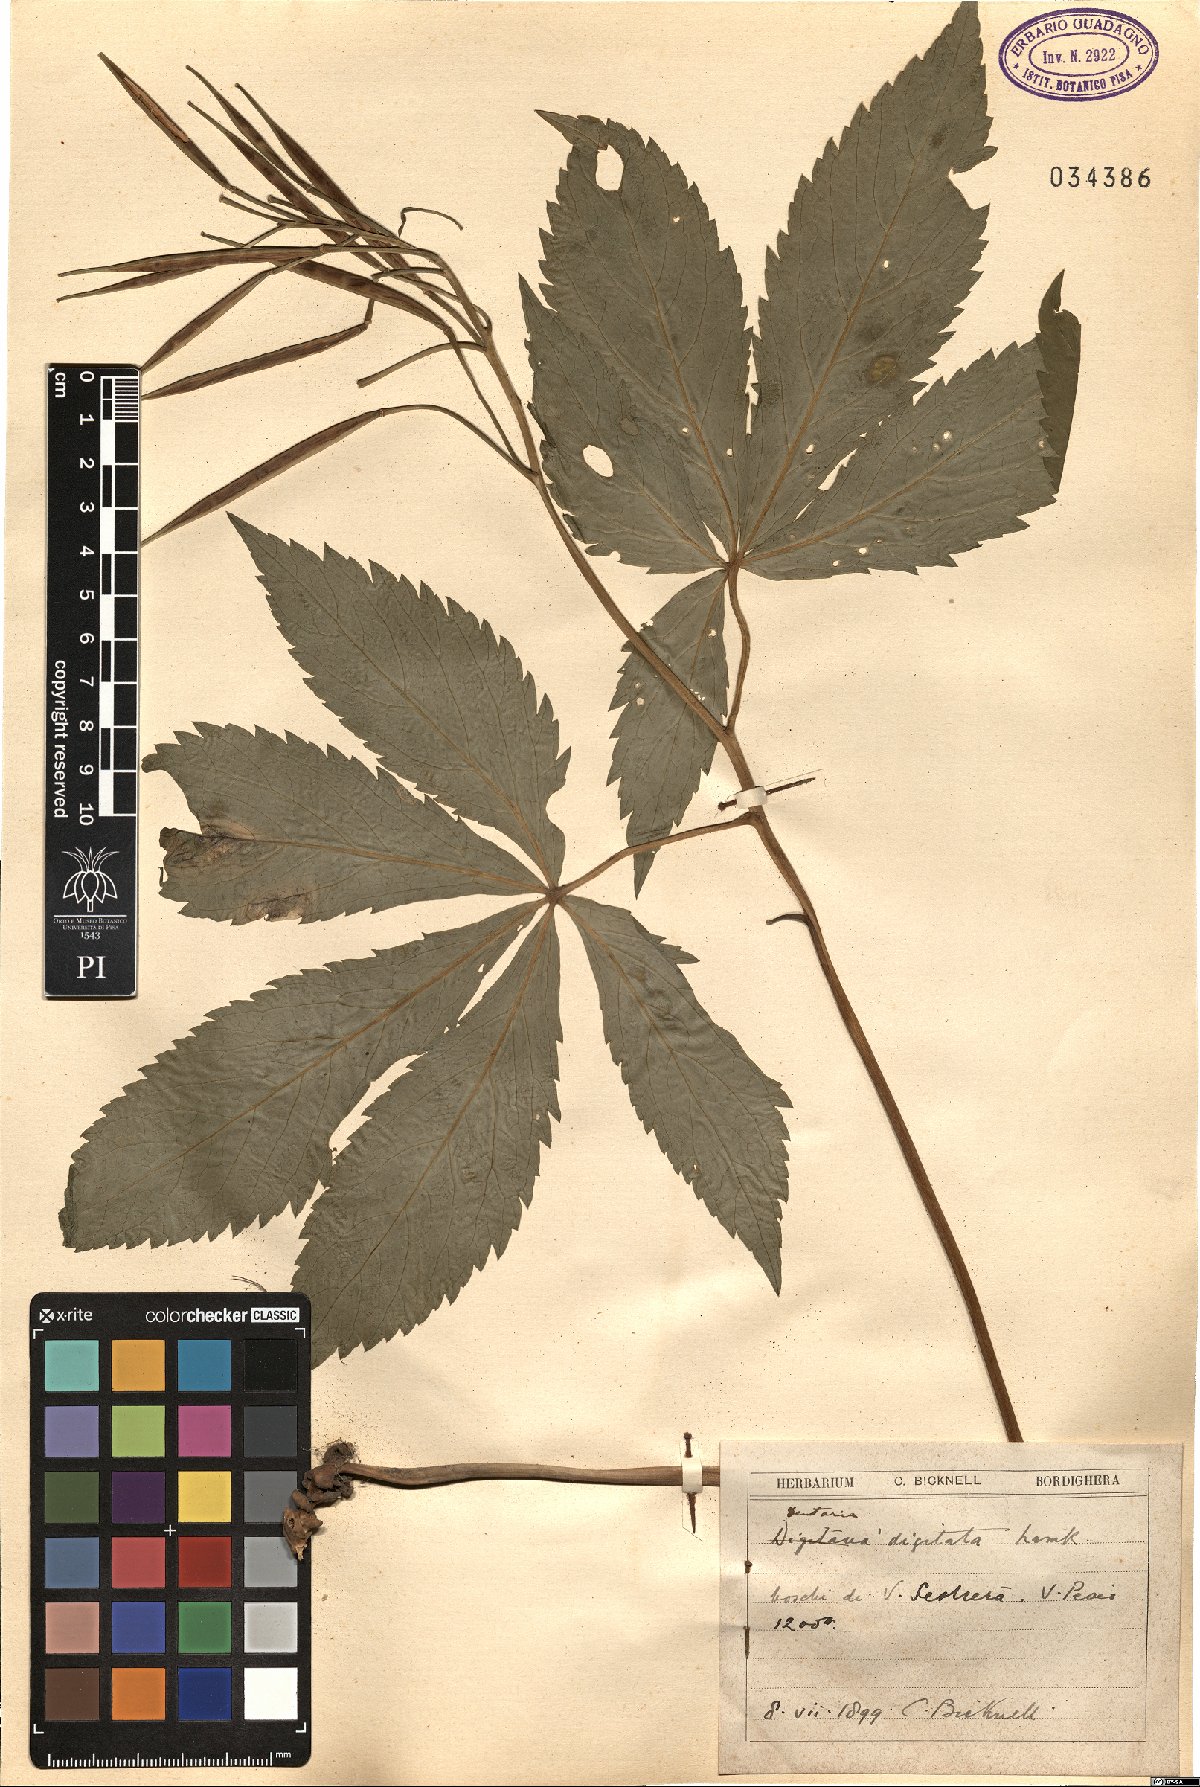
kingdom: Plantae
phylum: Tracheophyta
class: Magnoliopsida
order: Brassicales
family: Brassicaceae
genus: Cardamine
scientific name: Cardamine pentaphyllos
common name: Five-leaflet bitter-cress
